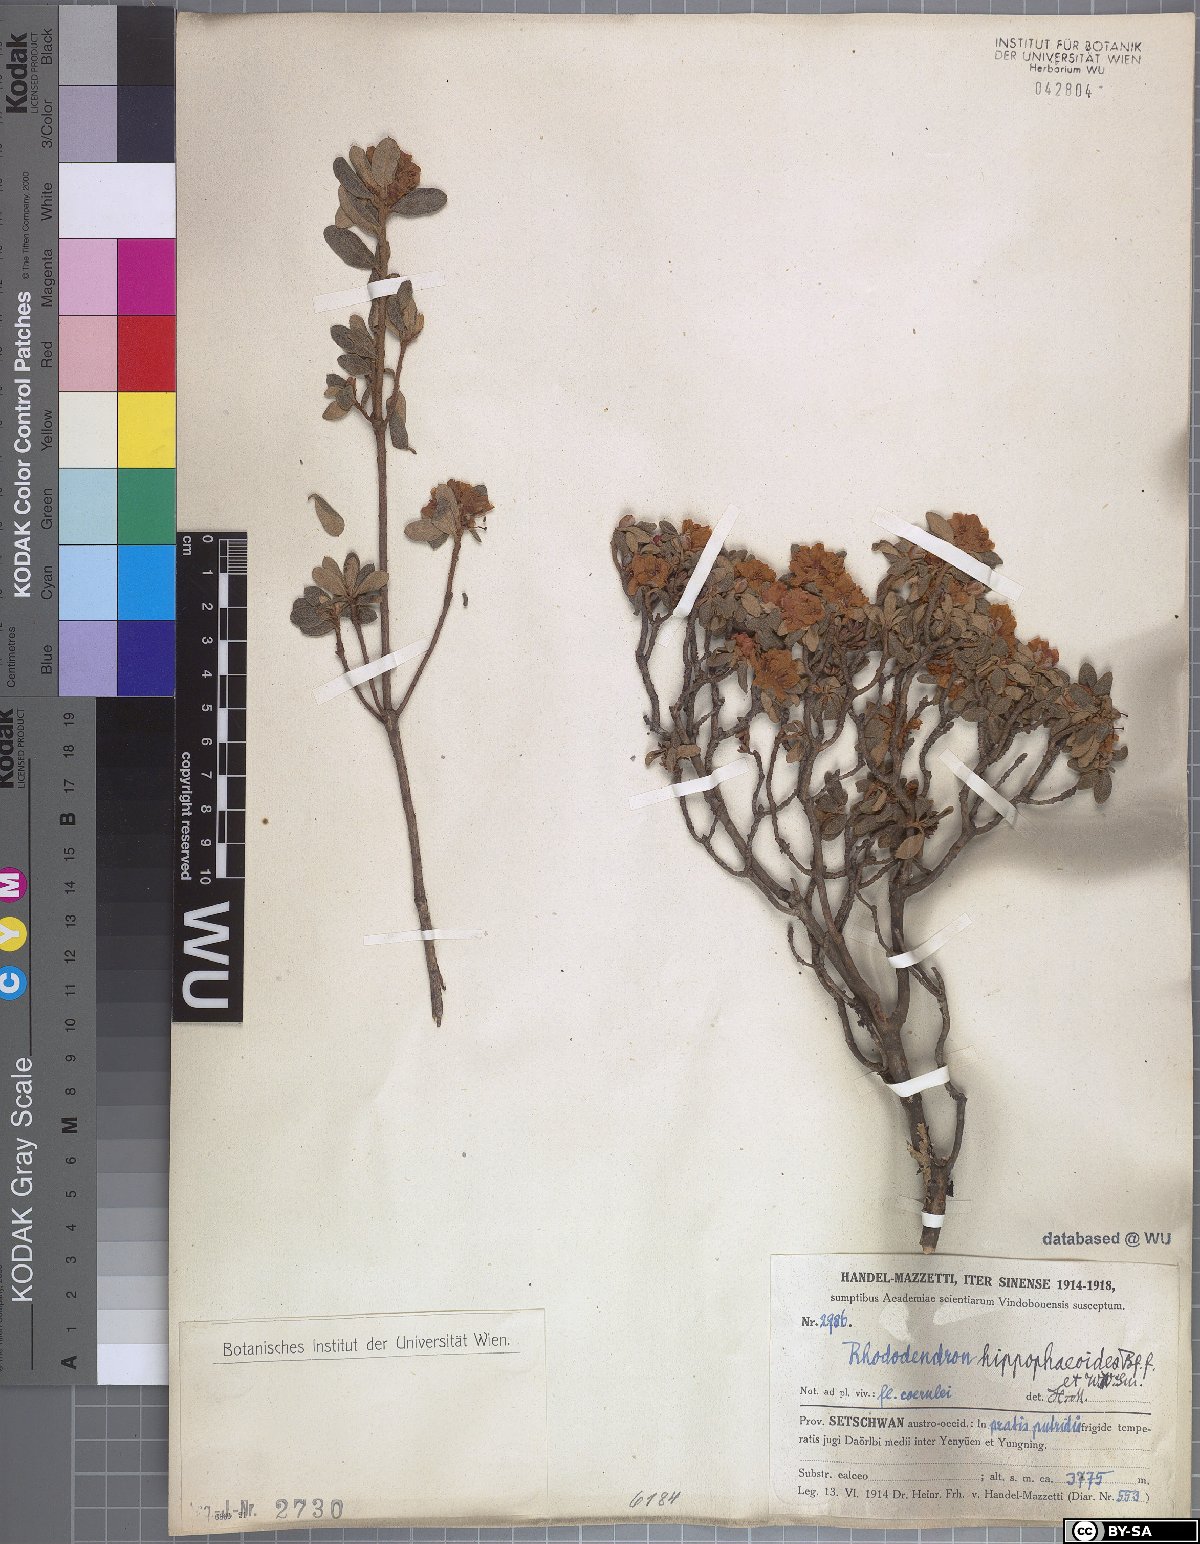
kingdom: Plantae
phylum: Tracheophyta
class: Magnoliopsida
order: Ericales
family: Ericaceae
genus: Rhododendron
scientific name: Rhododendron hippophaeoides
